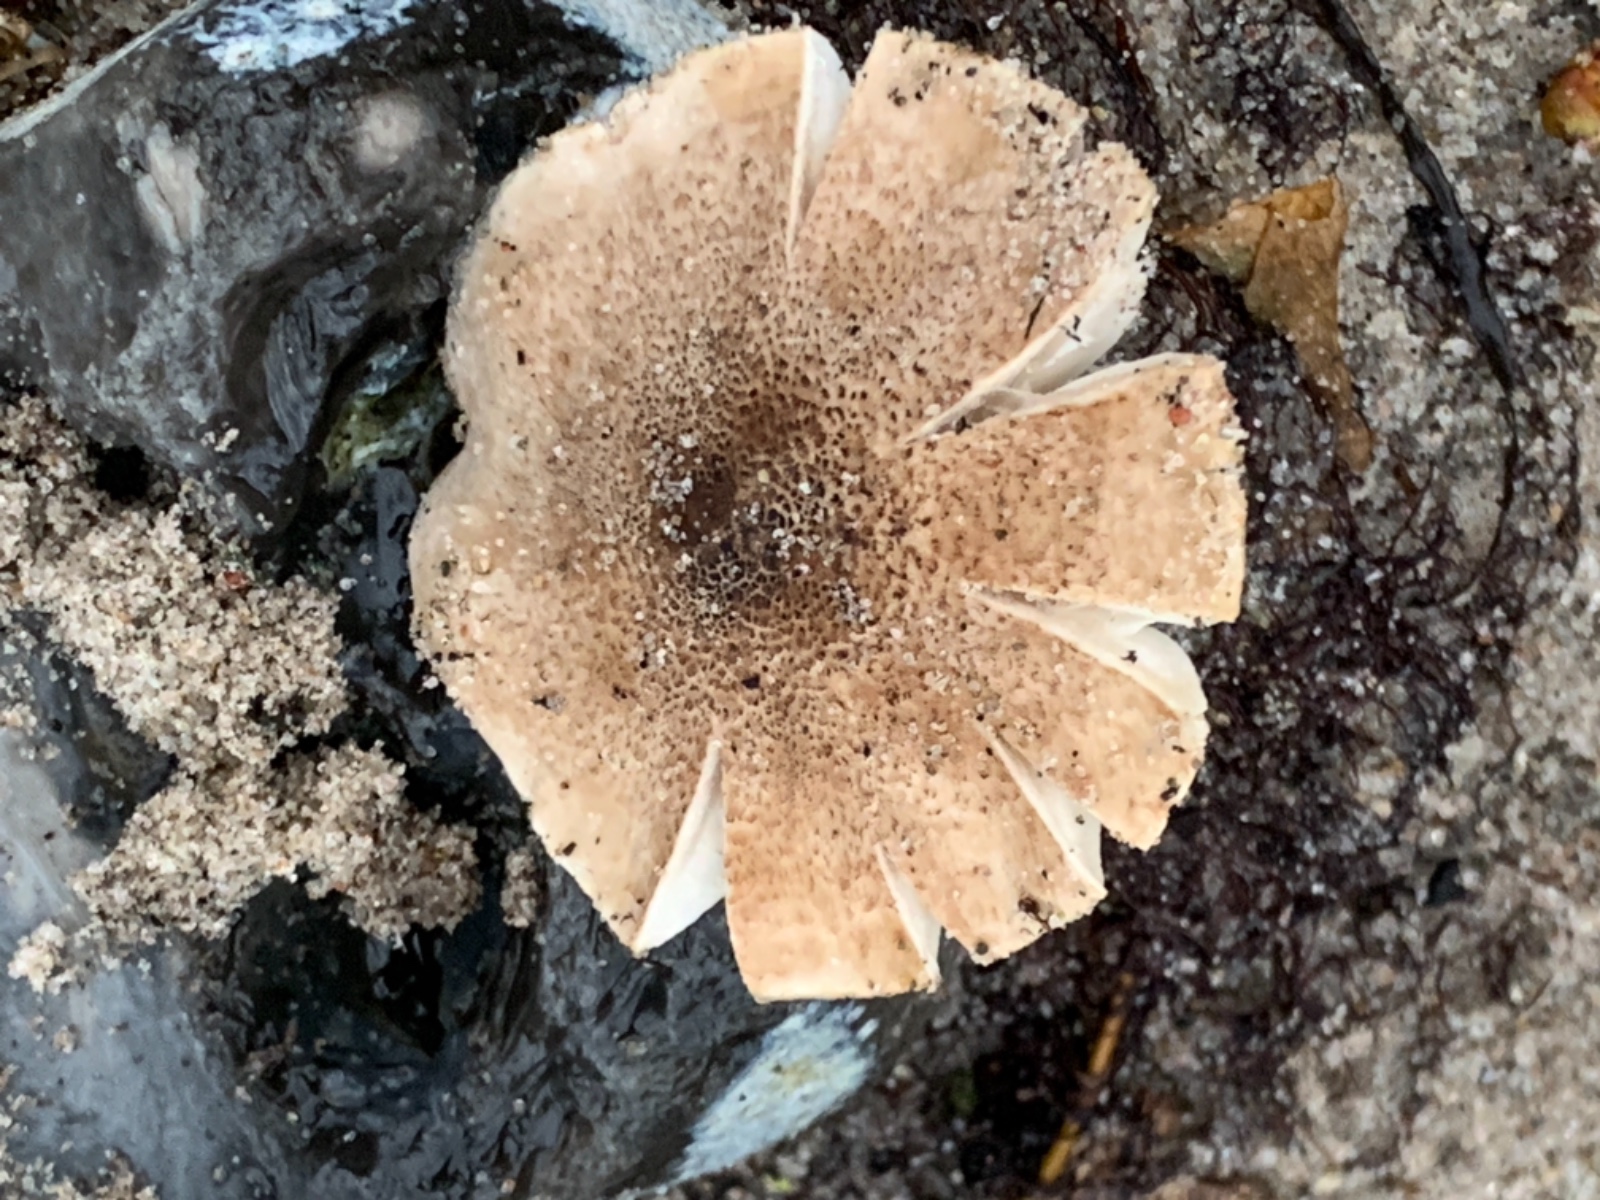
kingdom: Fungi
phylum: Basidiomycota
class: Agaricomycetes
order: Agaricales
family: Tricholomataceae
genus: Tricholoma
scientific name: Tricholoma scalpturatum
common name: gulplettet ridderhat
